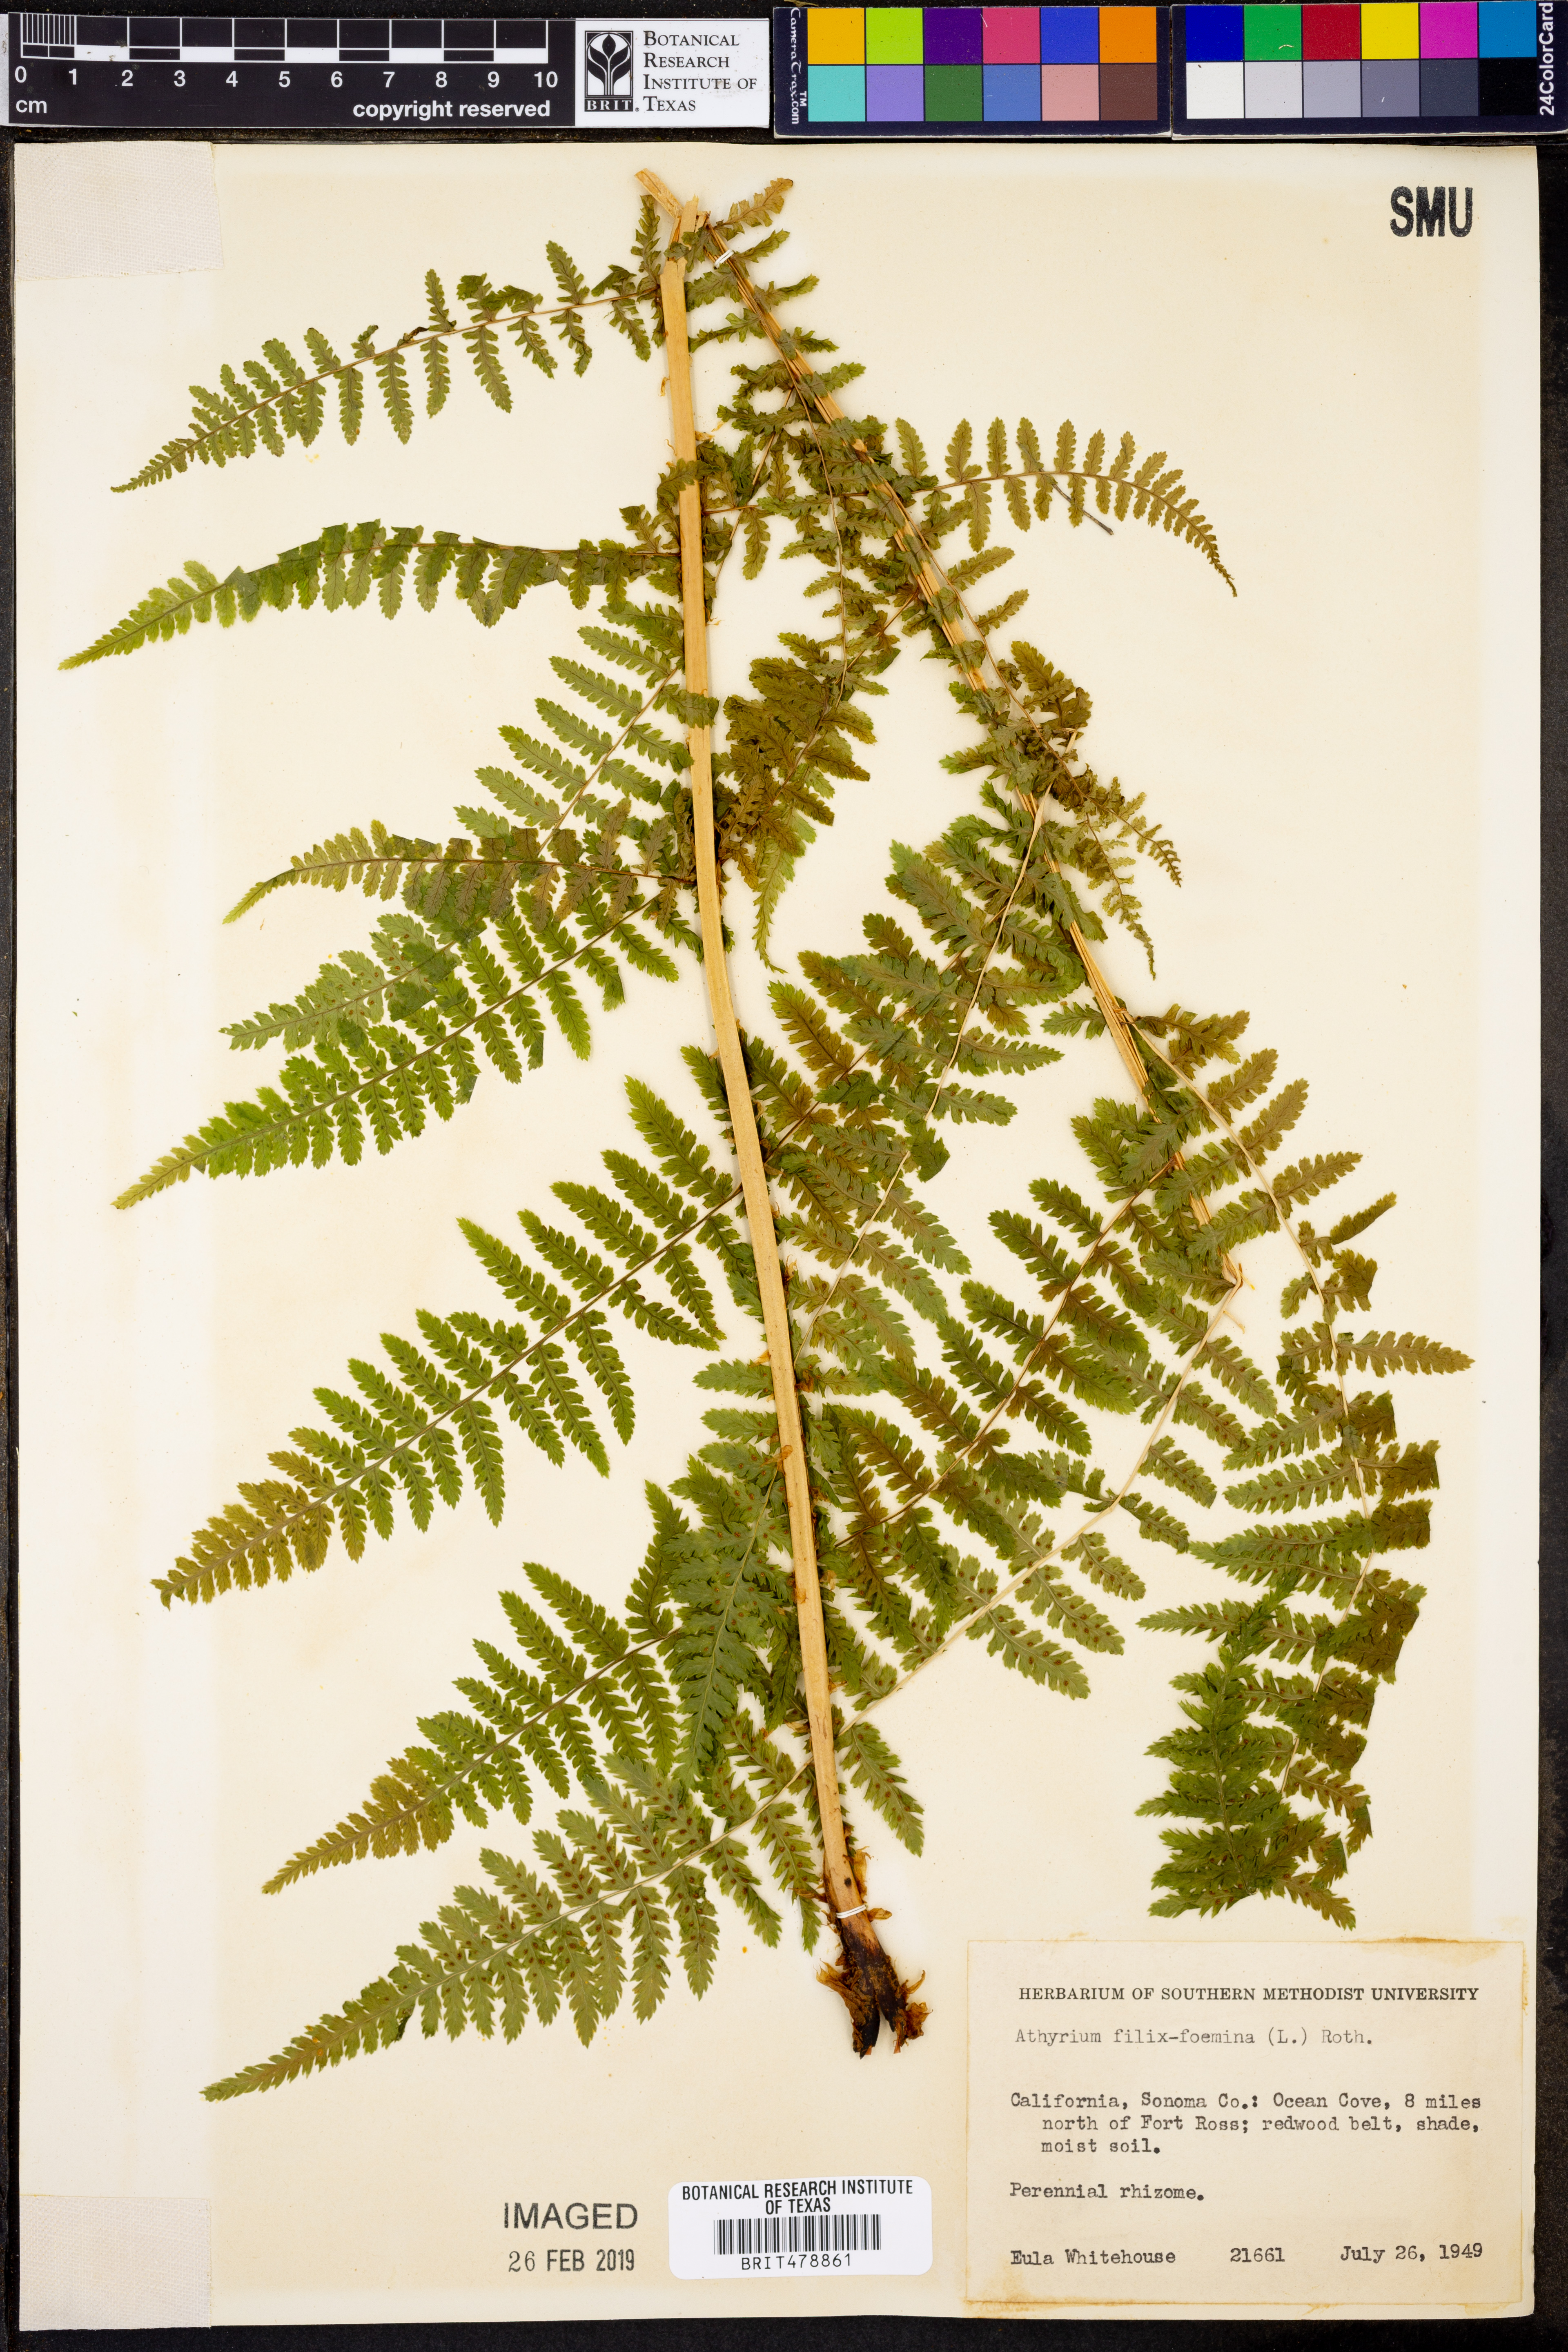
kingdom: Plantae
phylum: Tracheophyta
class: Polypodiopsida
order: Polypodiales
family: Athyriaceae
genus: Athyrium
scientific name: Athyrium filix-femina
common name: Lady fern
